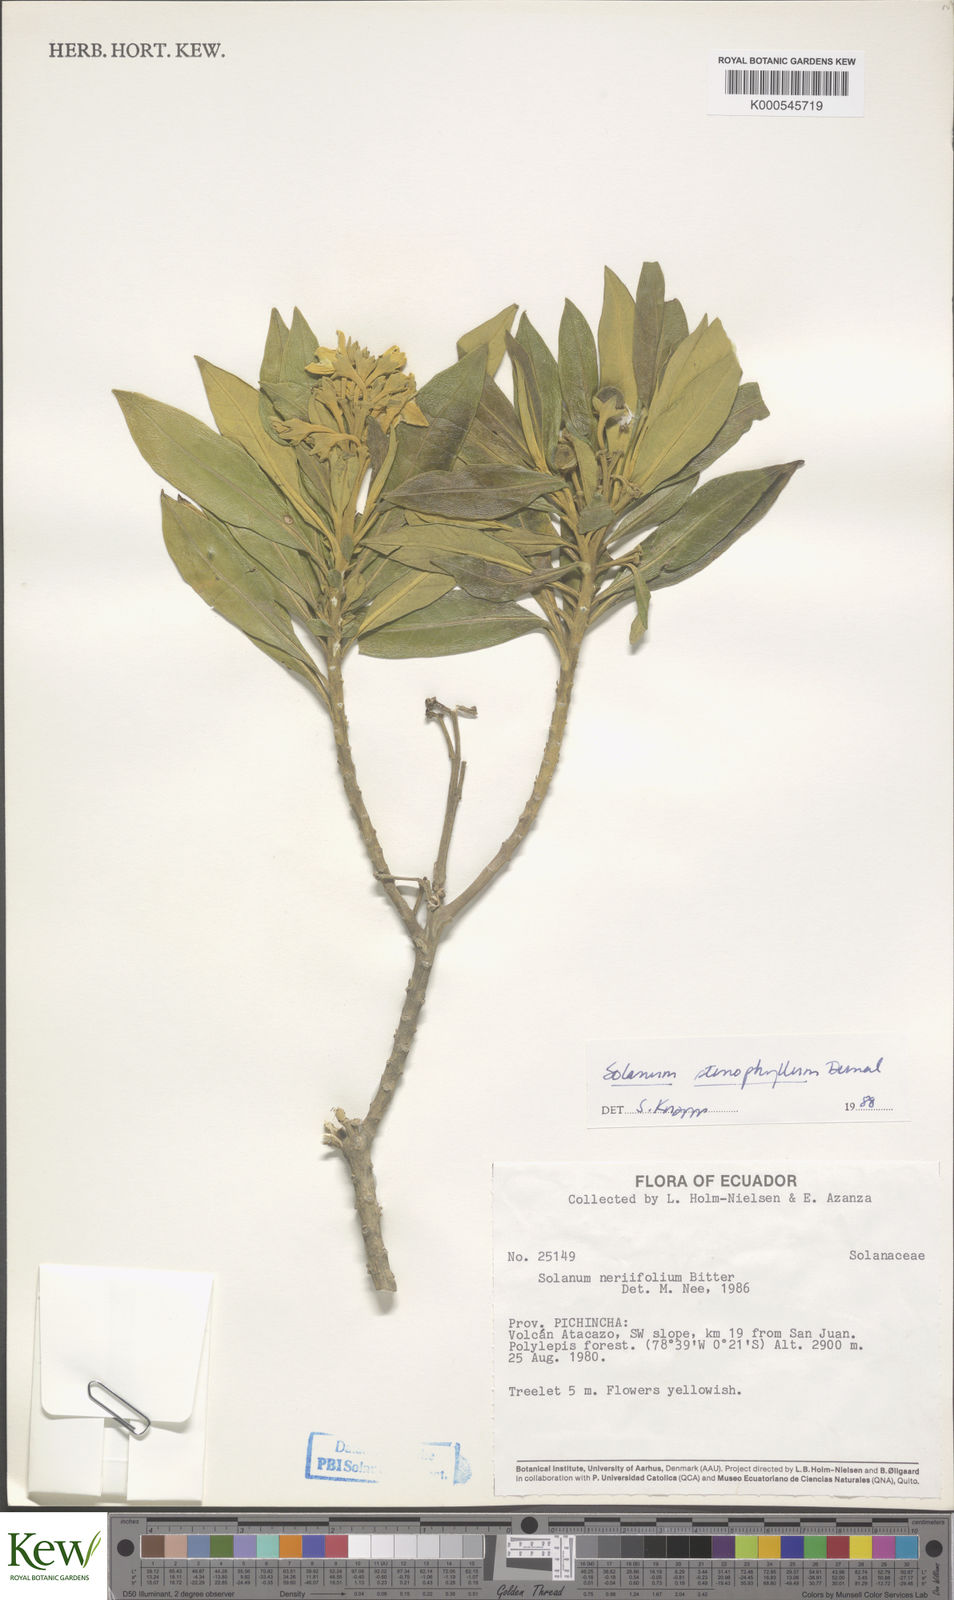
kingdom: Plantae
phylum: Tracheophyta
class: Magnoliopsida
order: Solanales
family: Solanaceae
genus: Solanum
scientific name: Solanum stenophyllum
